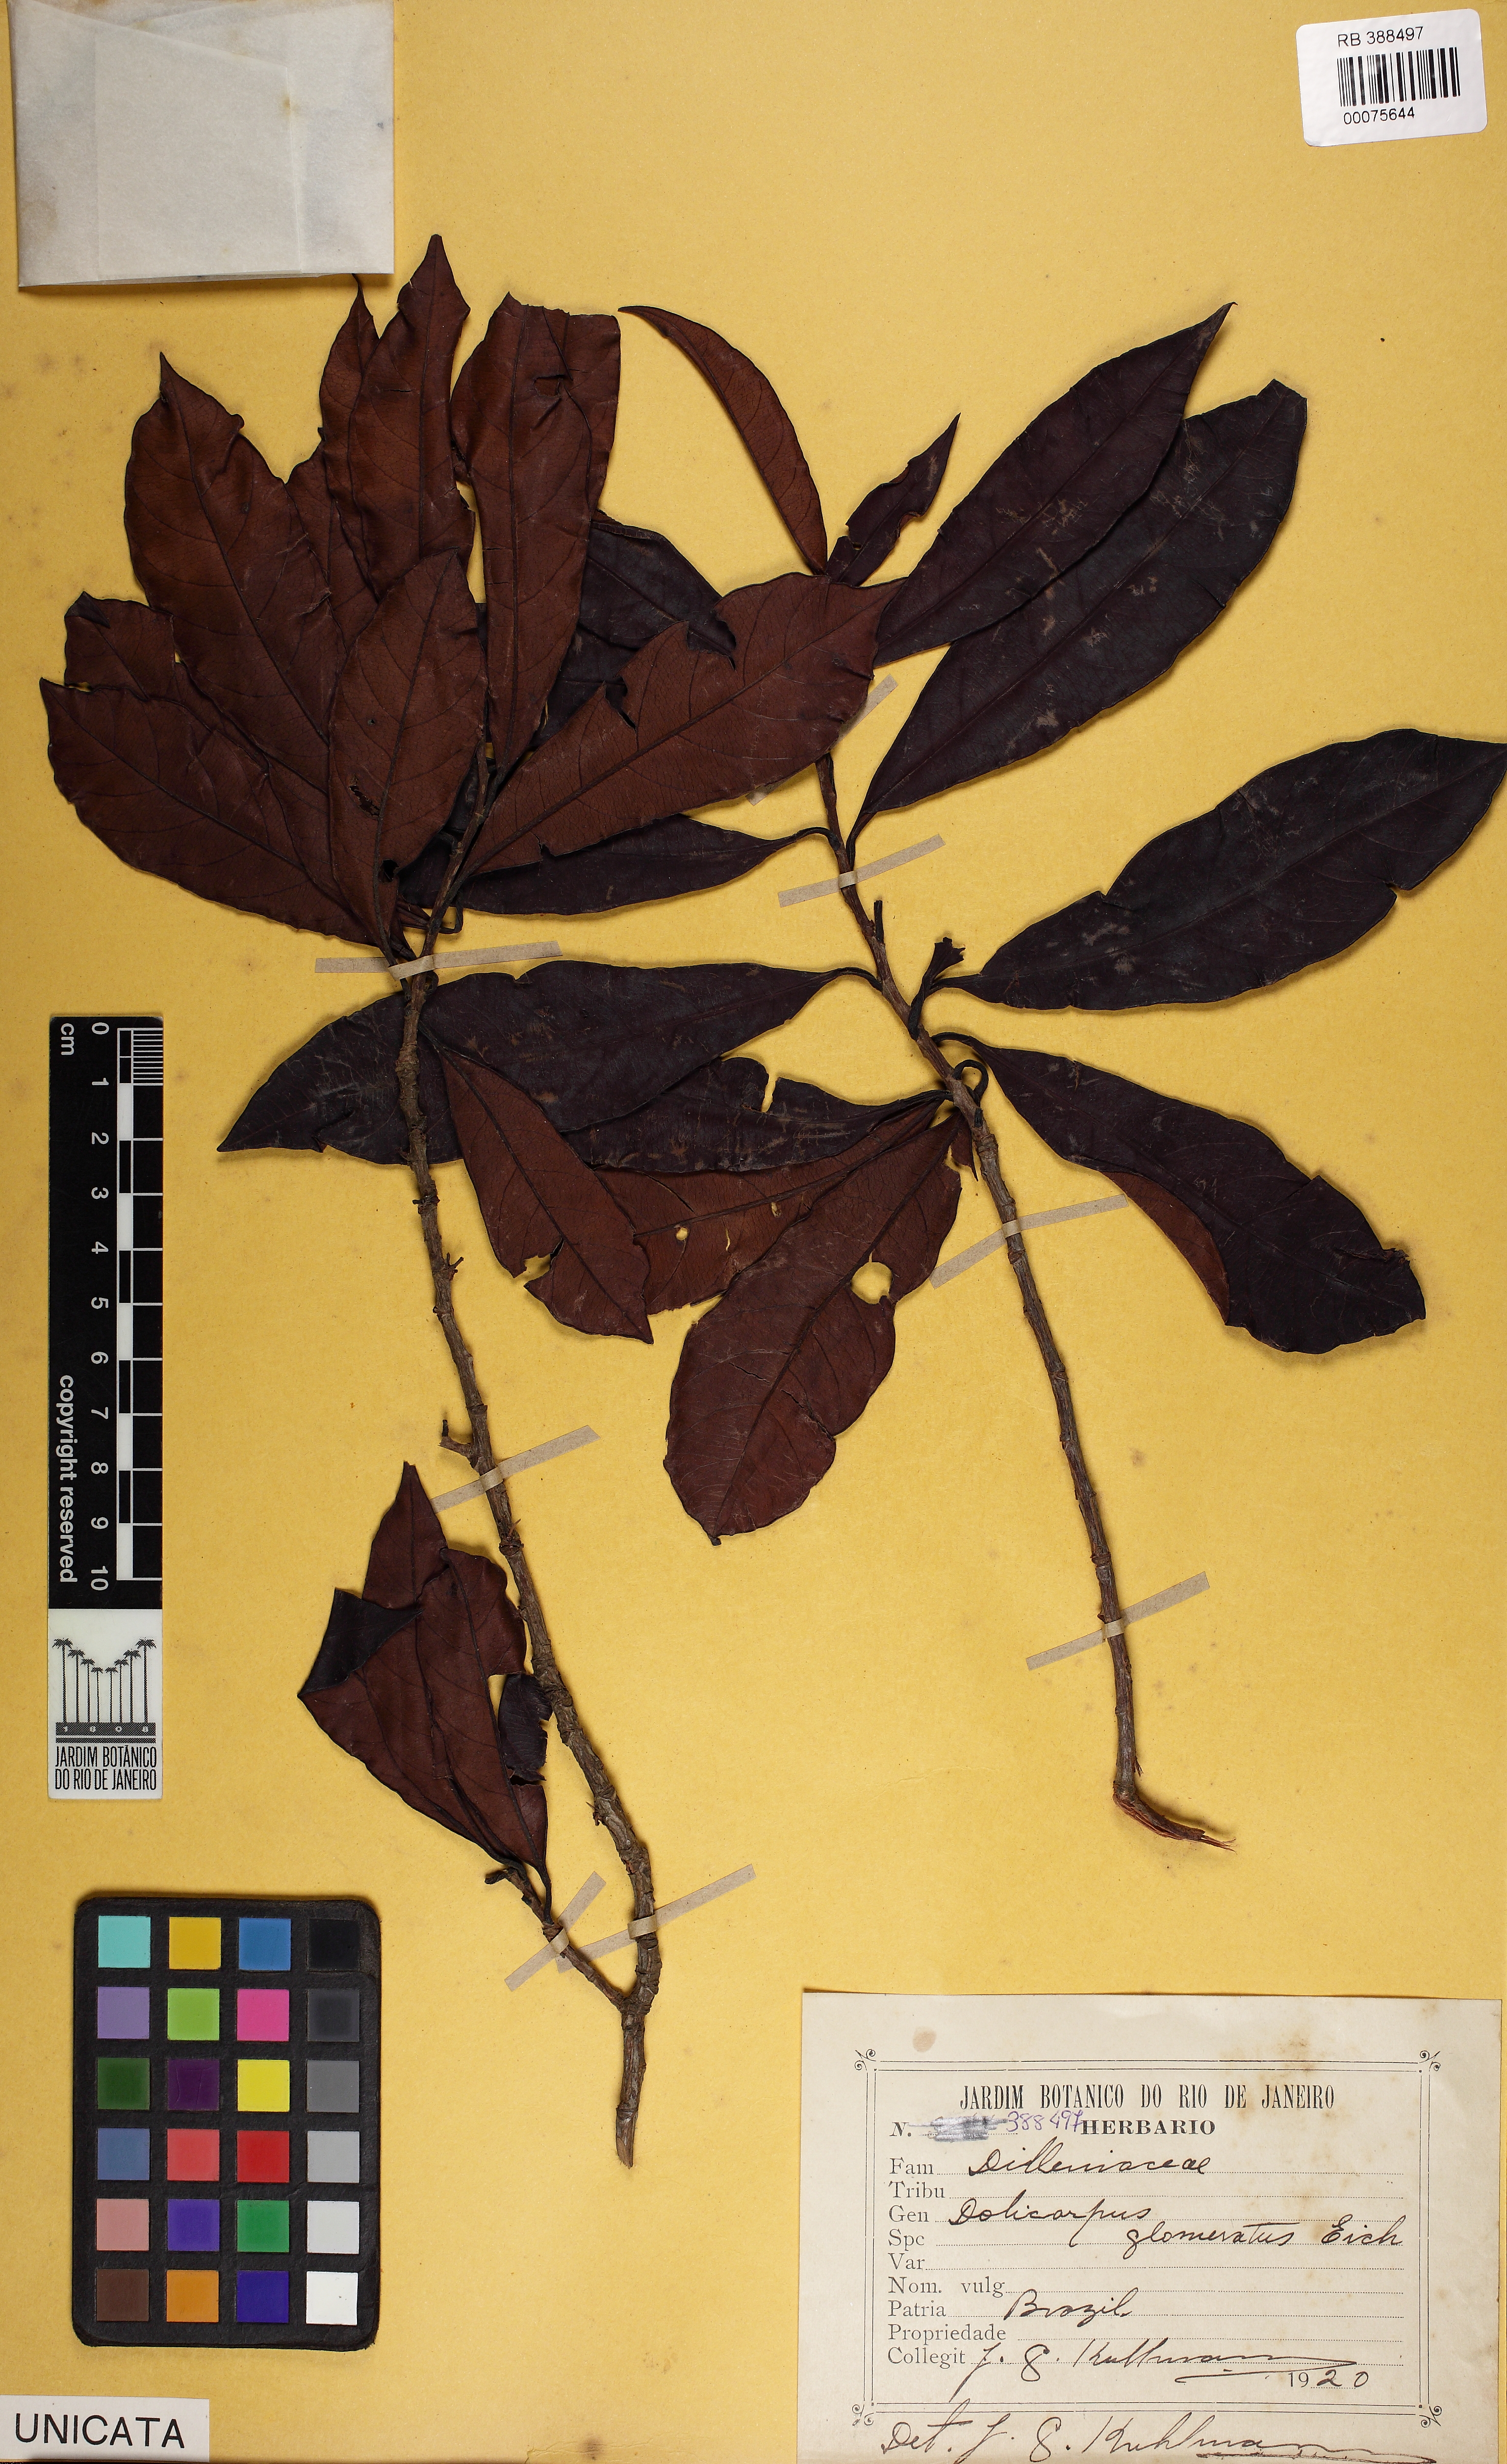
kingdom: Plantae
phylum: Tracheophyta
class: Magnoliopsida
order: Dilleniales
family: Dilleniaceae
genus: Doliocarpus
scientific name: Doliocarpus glomeratus
